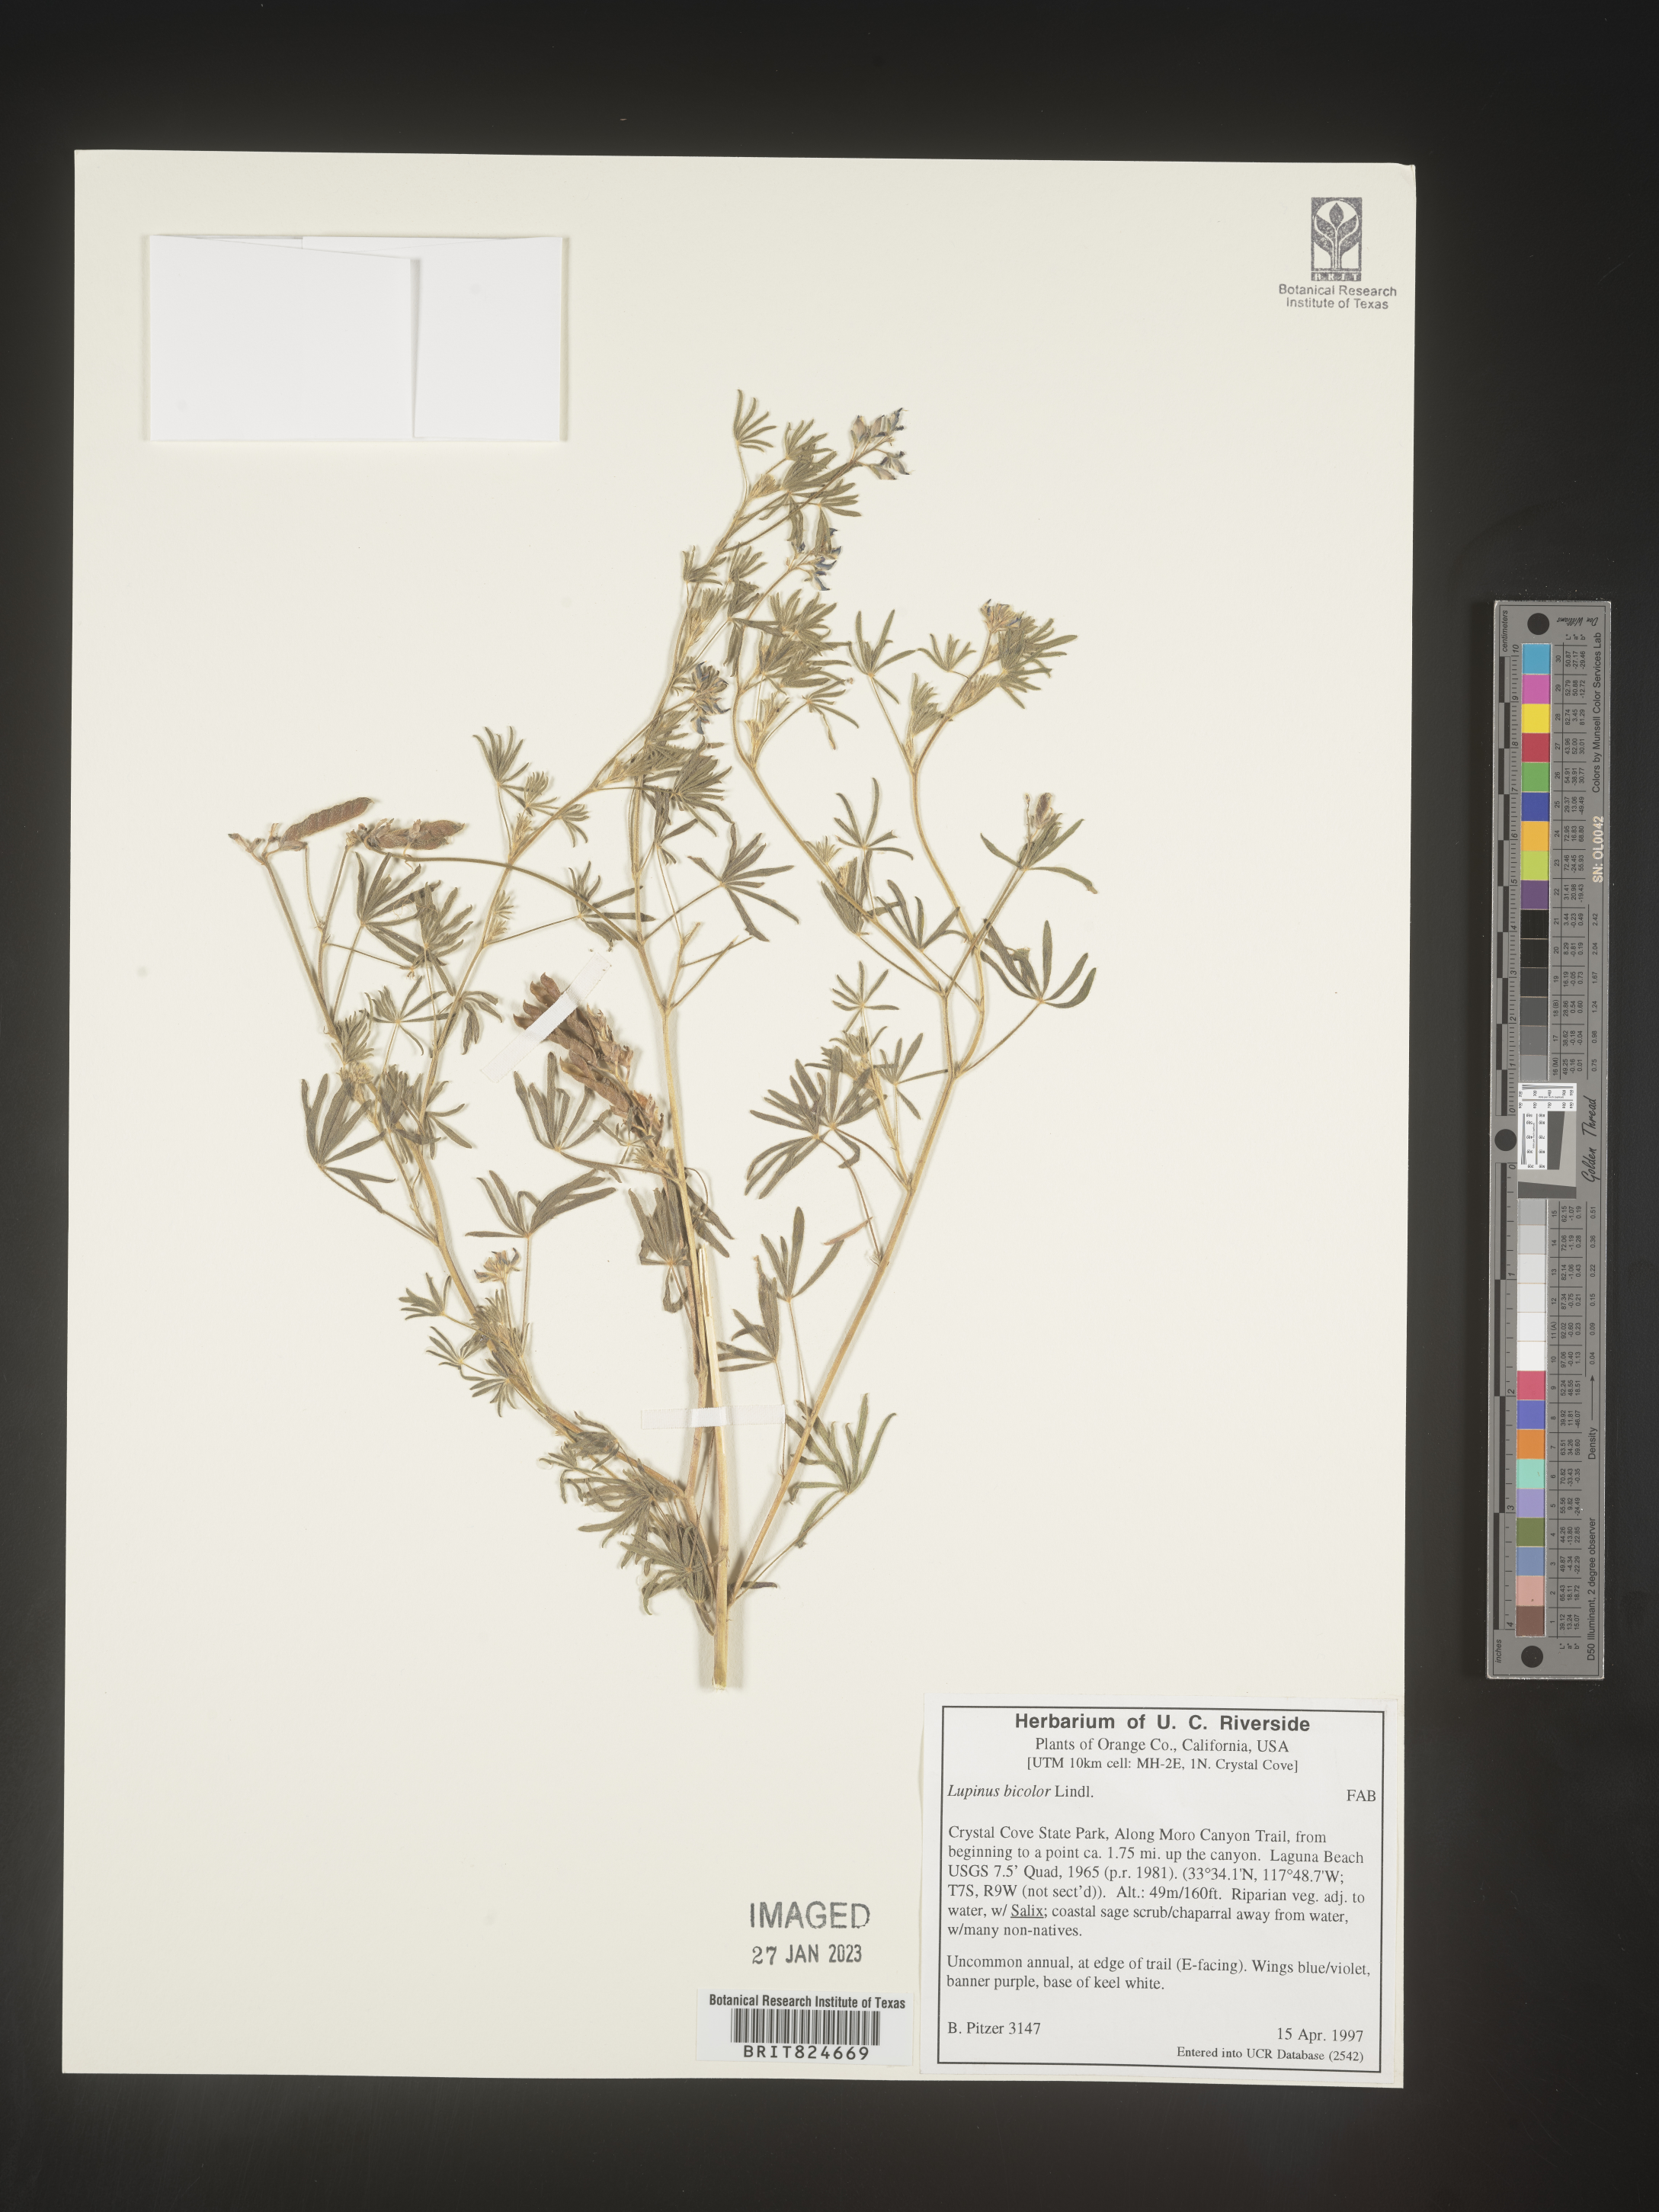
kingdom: Plantae
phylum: Tracheophyta
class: Magnoliopsida
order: Fabales
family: Fabaceae
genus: Lupinus
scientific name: Lupinus bicolor
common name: Miniature lupine
